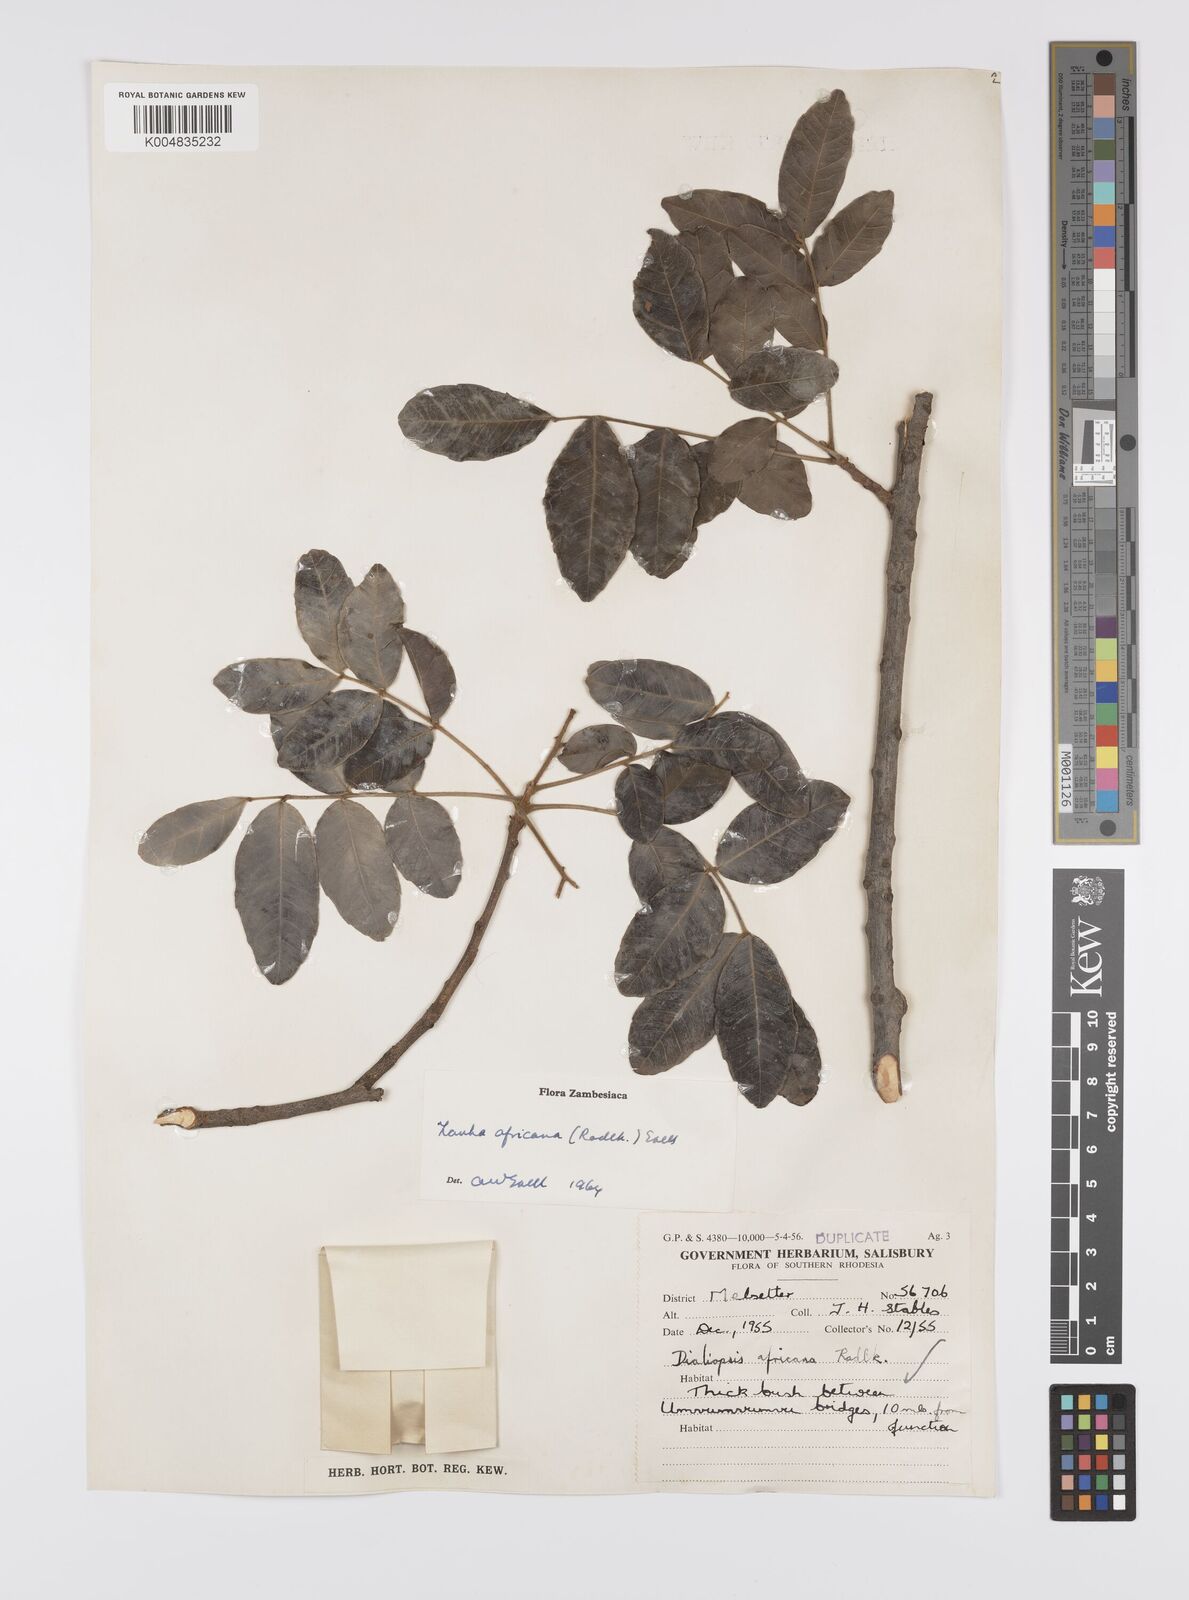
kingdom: Plantae
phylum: Tracheophyta
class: Magnoliopsida
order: Sapindales
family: Sapindaceae
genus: Zanha
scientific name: Zanha africana
